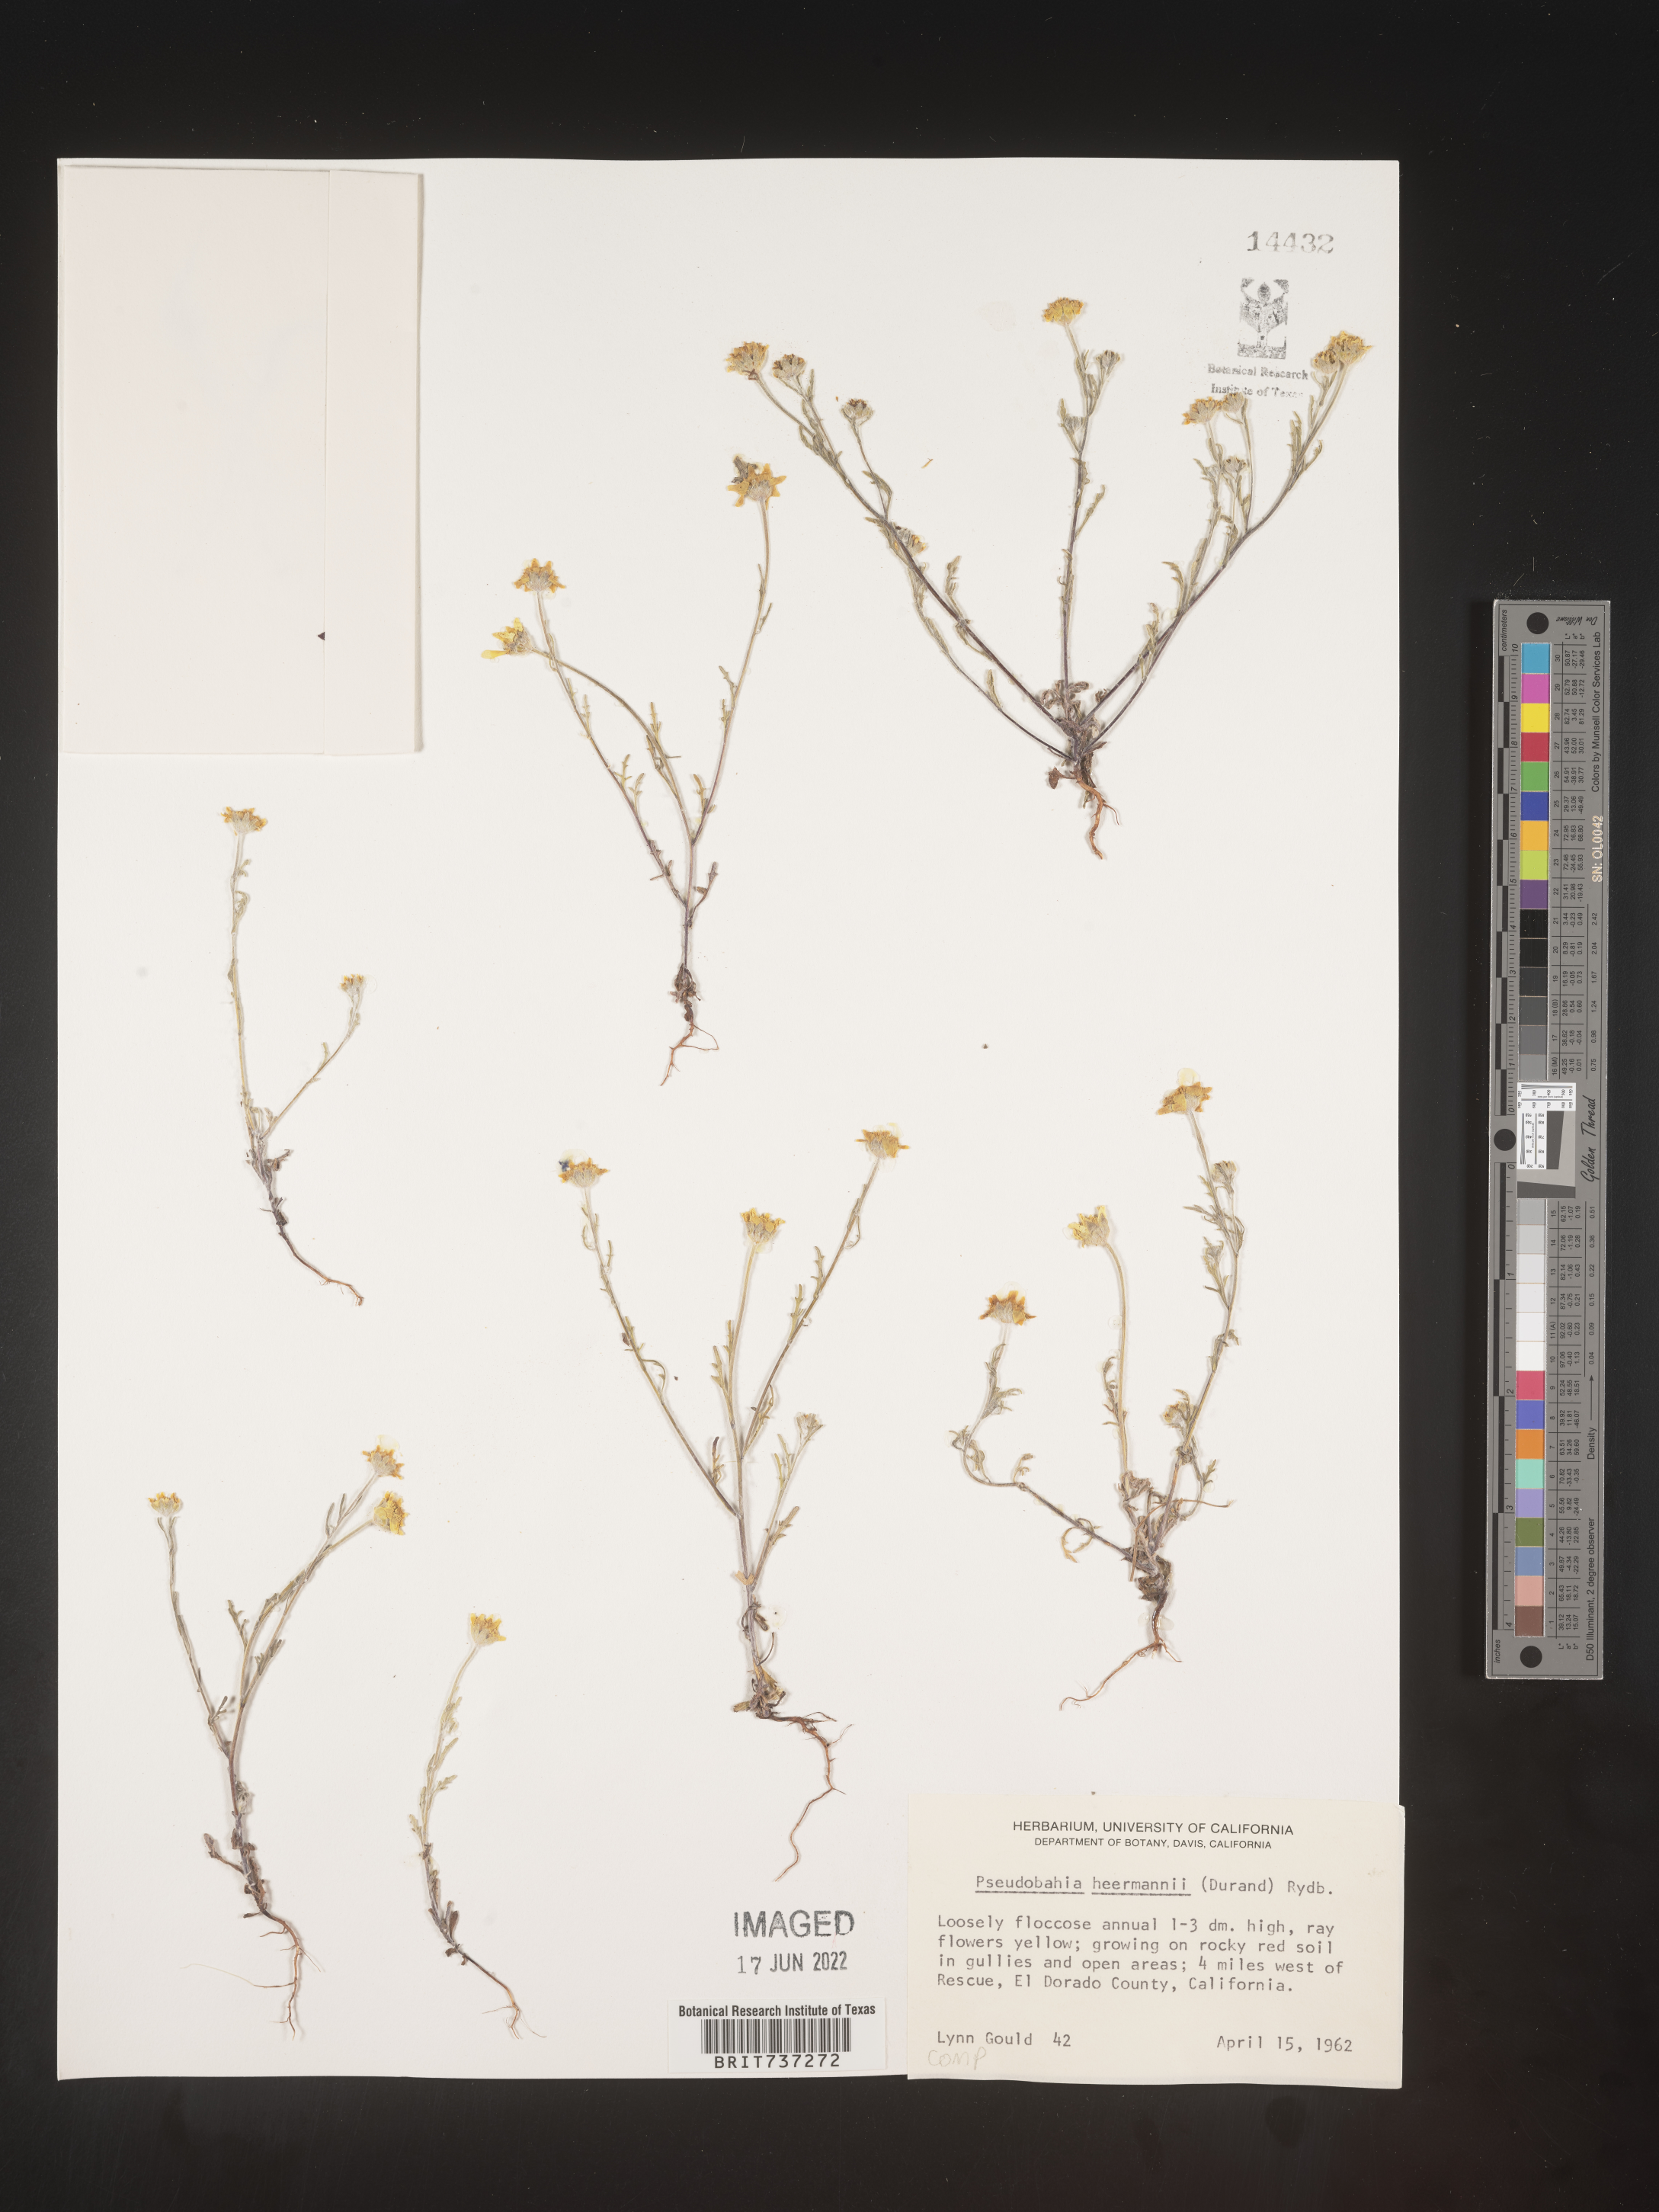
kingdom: Plantae
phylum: Tracheophyta
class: Magnoliopsida
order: Asterales
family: Asteraceae
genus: Pseudobahia
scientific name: Pseudobahia
